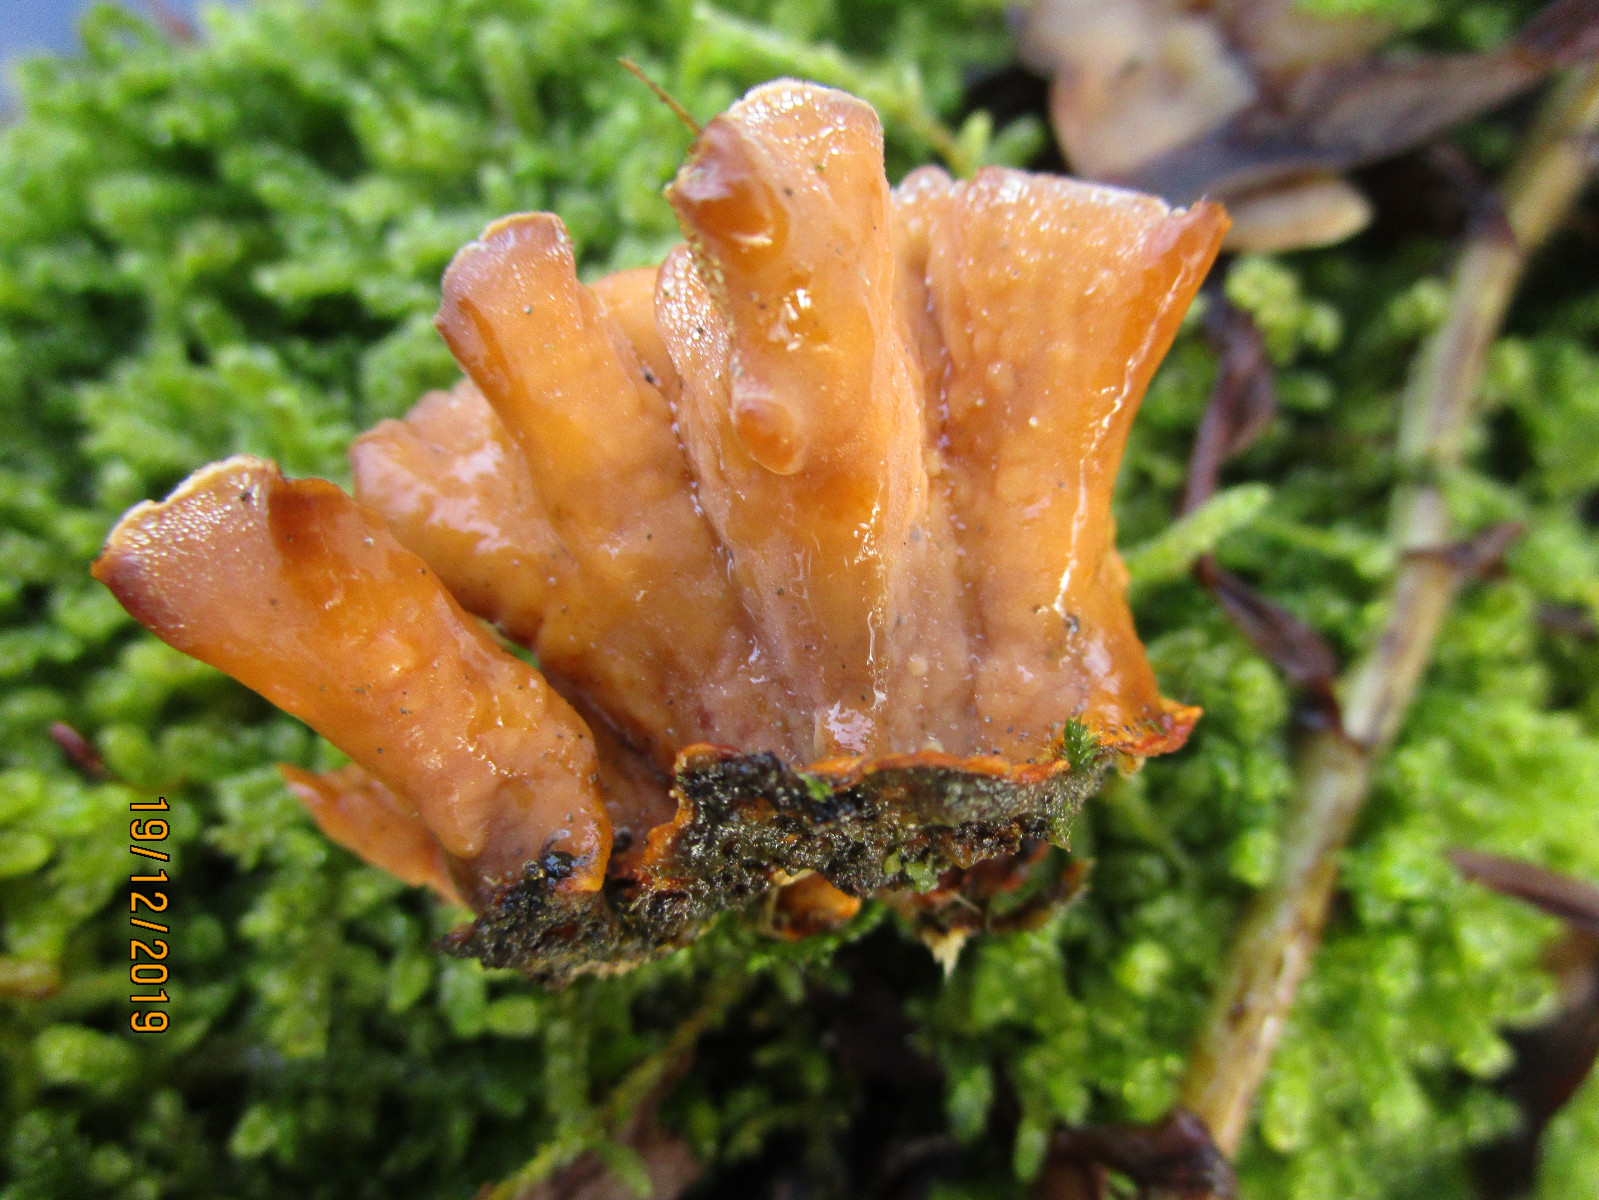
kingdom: Fungi
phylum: Basidiomycota
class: Agaricomycetes
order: Russulales
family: Stereaceae
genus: Stereum
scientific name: Stereum hirsutum
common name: håret lædersvamp
